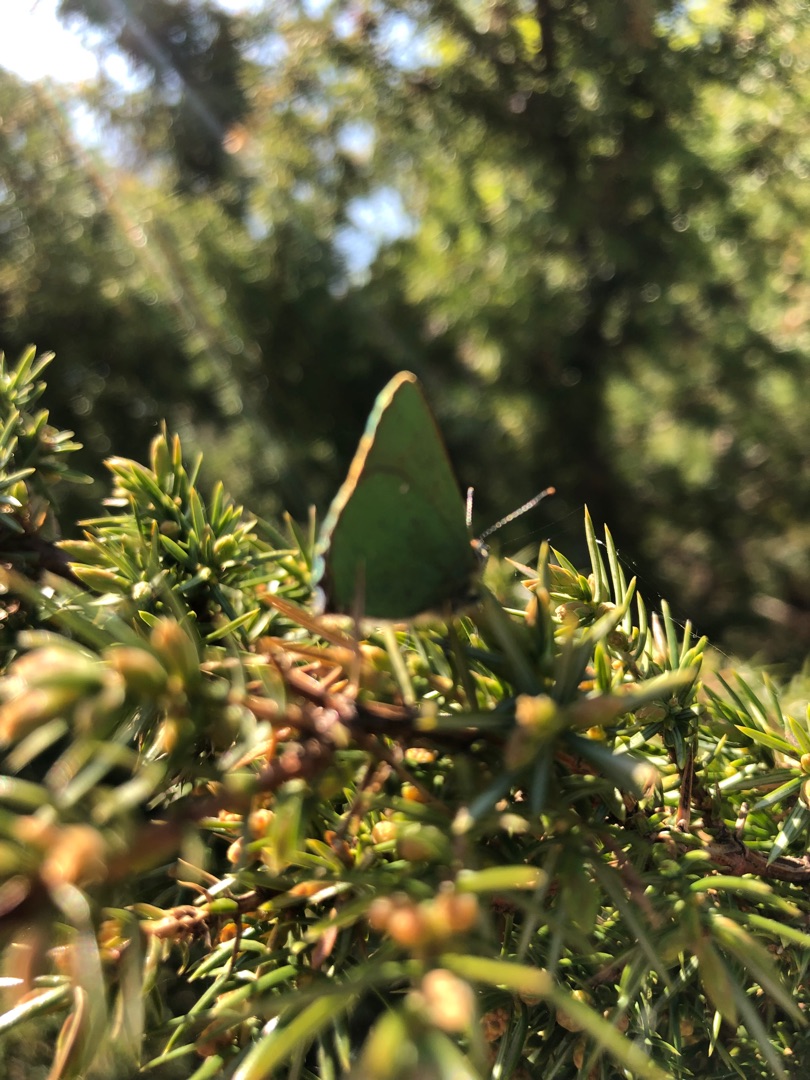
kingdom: Animalia
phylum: Arthropoda
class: Insecta
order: Lepidoptera
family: Lycaenidae
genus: Callophrys
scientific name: Callophrys rubi
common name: Grøn busksommerfugl
